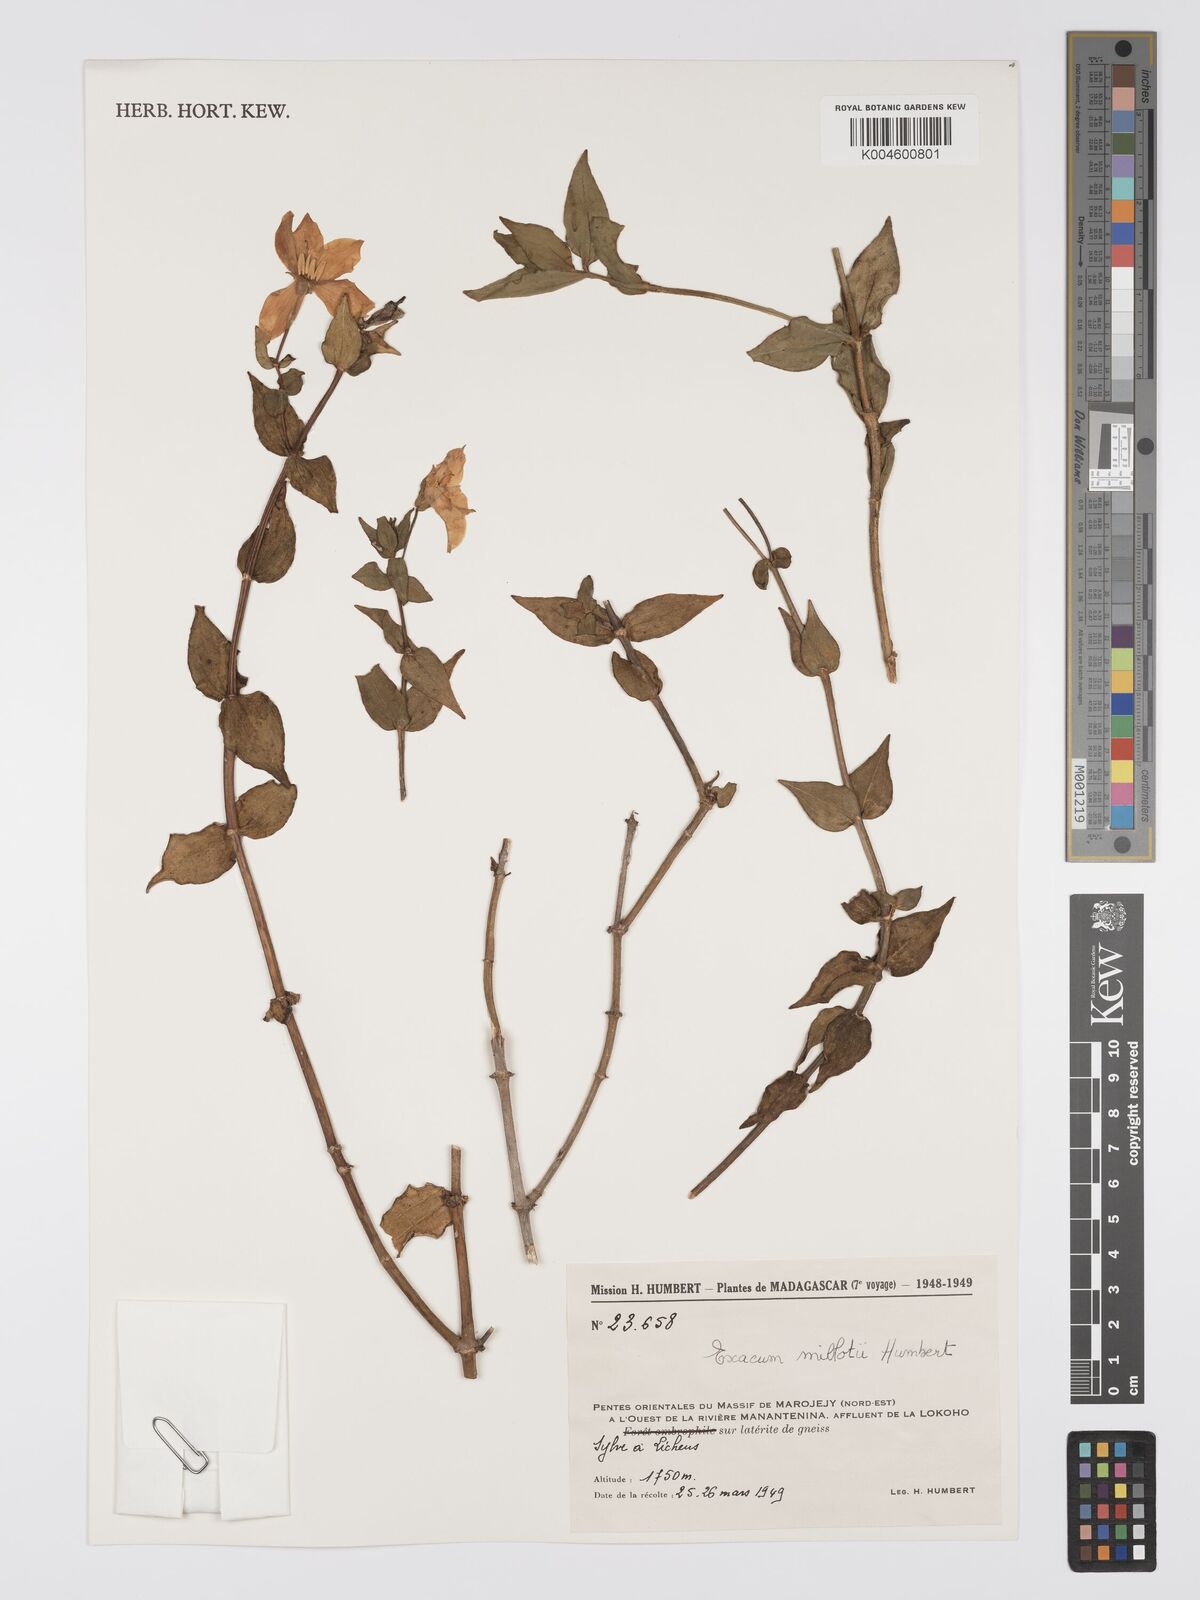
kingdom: Plantae
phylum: Tracheophyta
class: Magnoliopsida
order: Gentianales
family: Gentianaceae
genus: Exacum
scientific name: Exacum millotii
